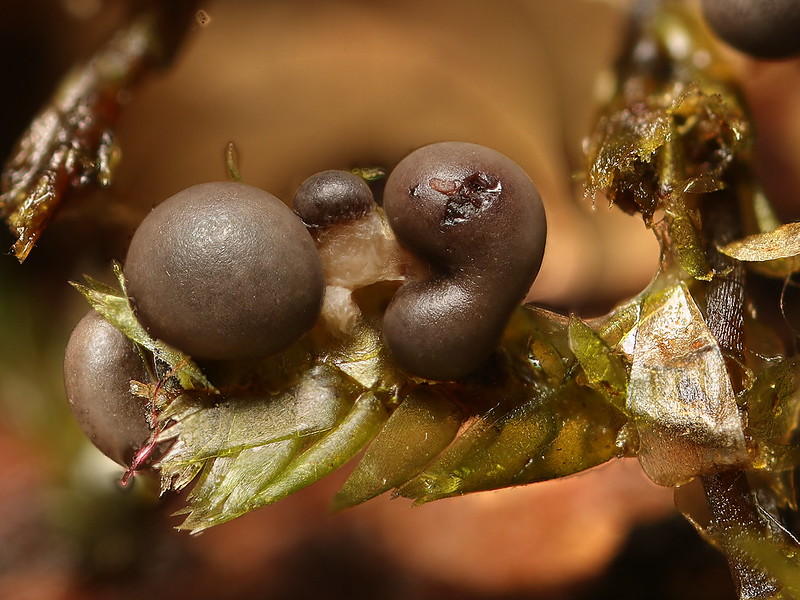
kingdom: Protozoa
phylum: Mycetozoa
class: Myxomycetes
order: Physarales
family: Didymiaceae
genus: Diderma
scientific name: Diderma montanum
